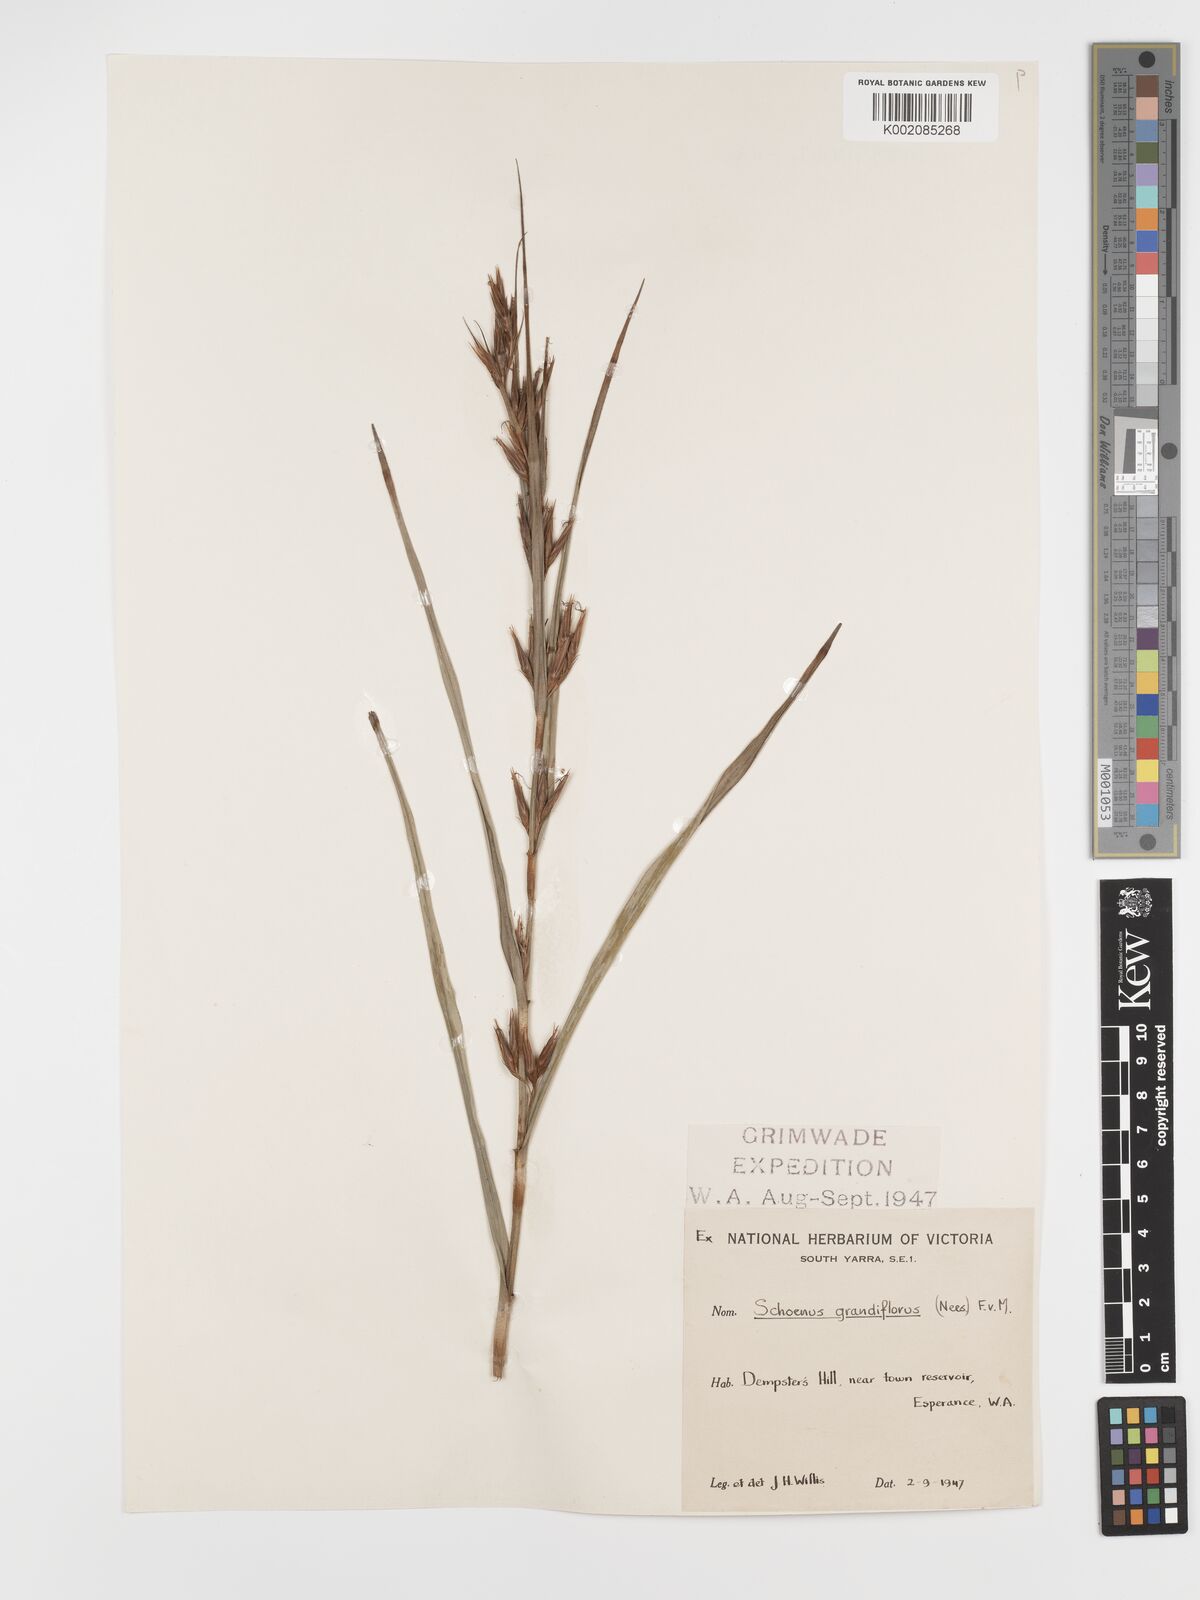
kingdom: Plantae
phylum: Tracheophyta
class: Liliopsida
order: Poales
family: Cyperaceae
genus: Schoenus
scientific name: Schoenus grandiflorus
